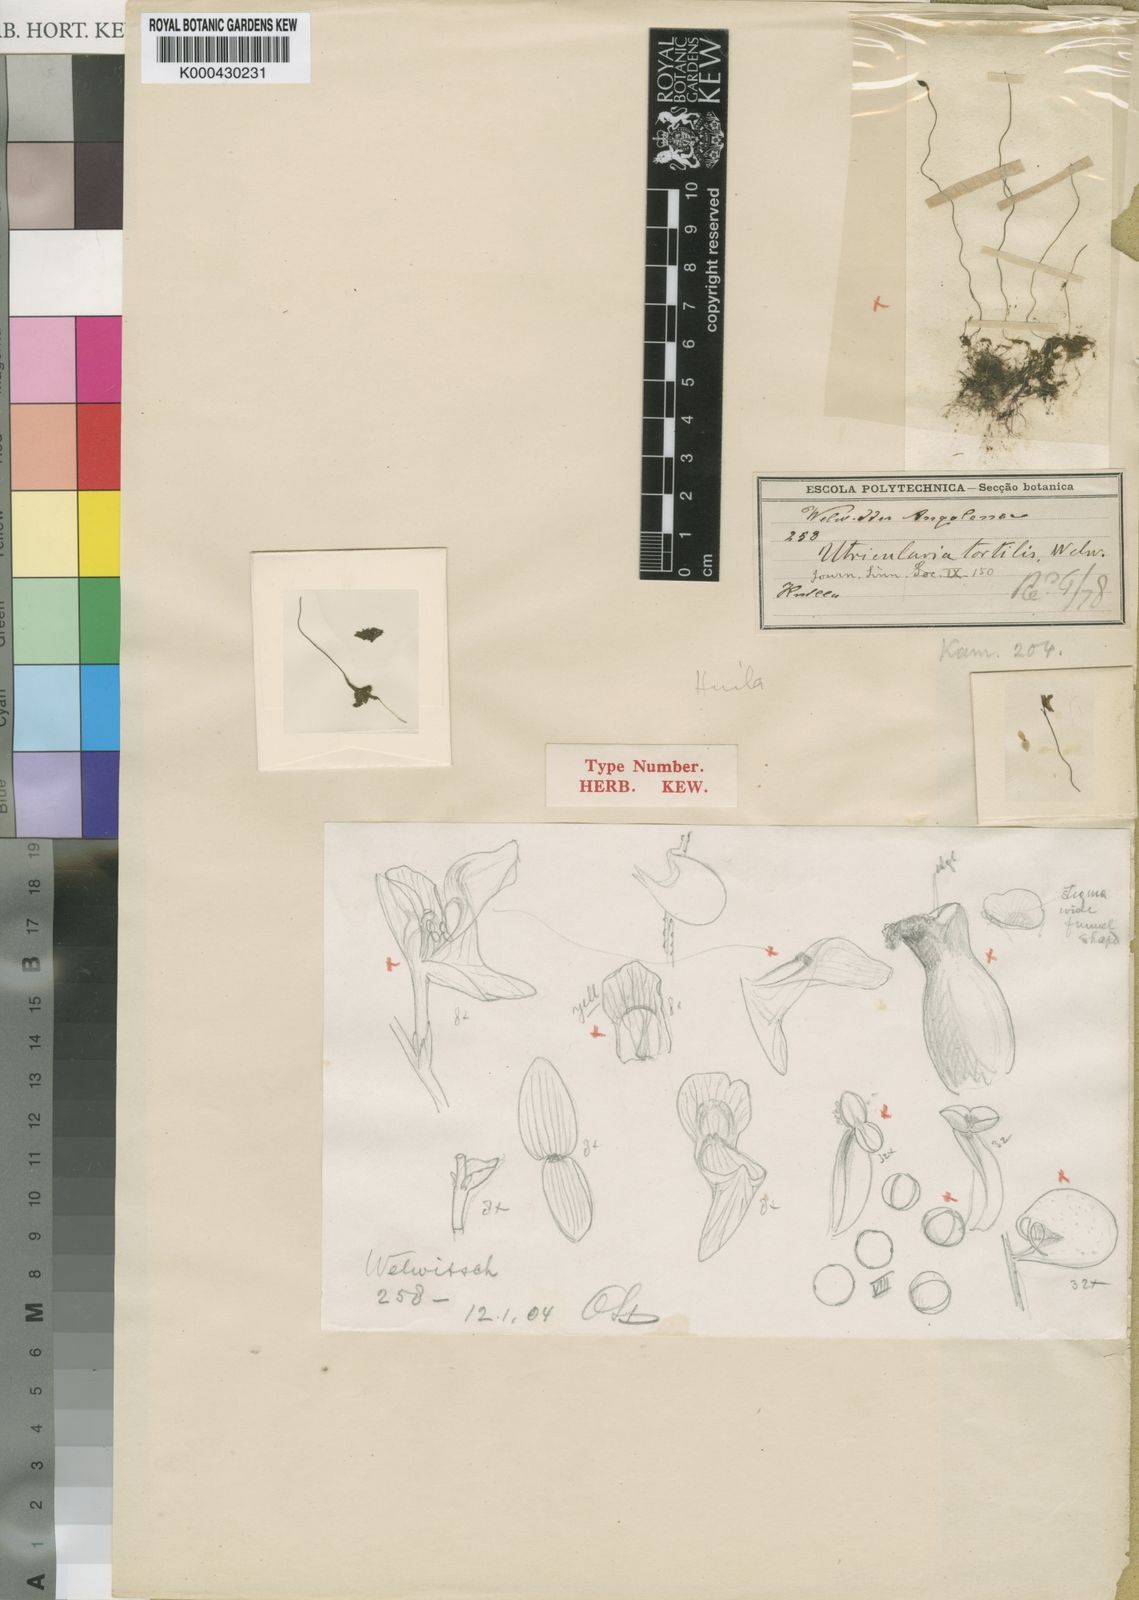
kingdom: Plantae
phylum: Tracheophyta
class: Magnoliopsida
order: Lamiales
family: Lentibulariaceae
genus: Utricularia
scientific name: Utricularia spiralis
